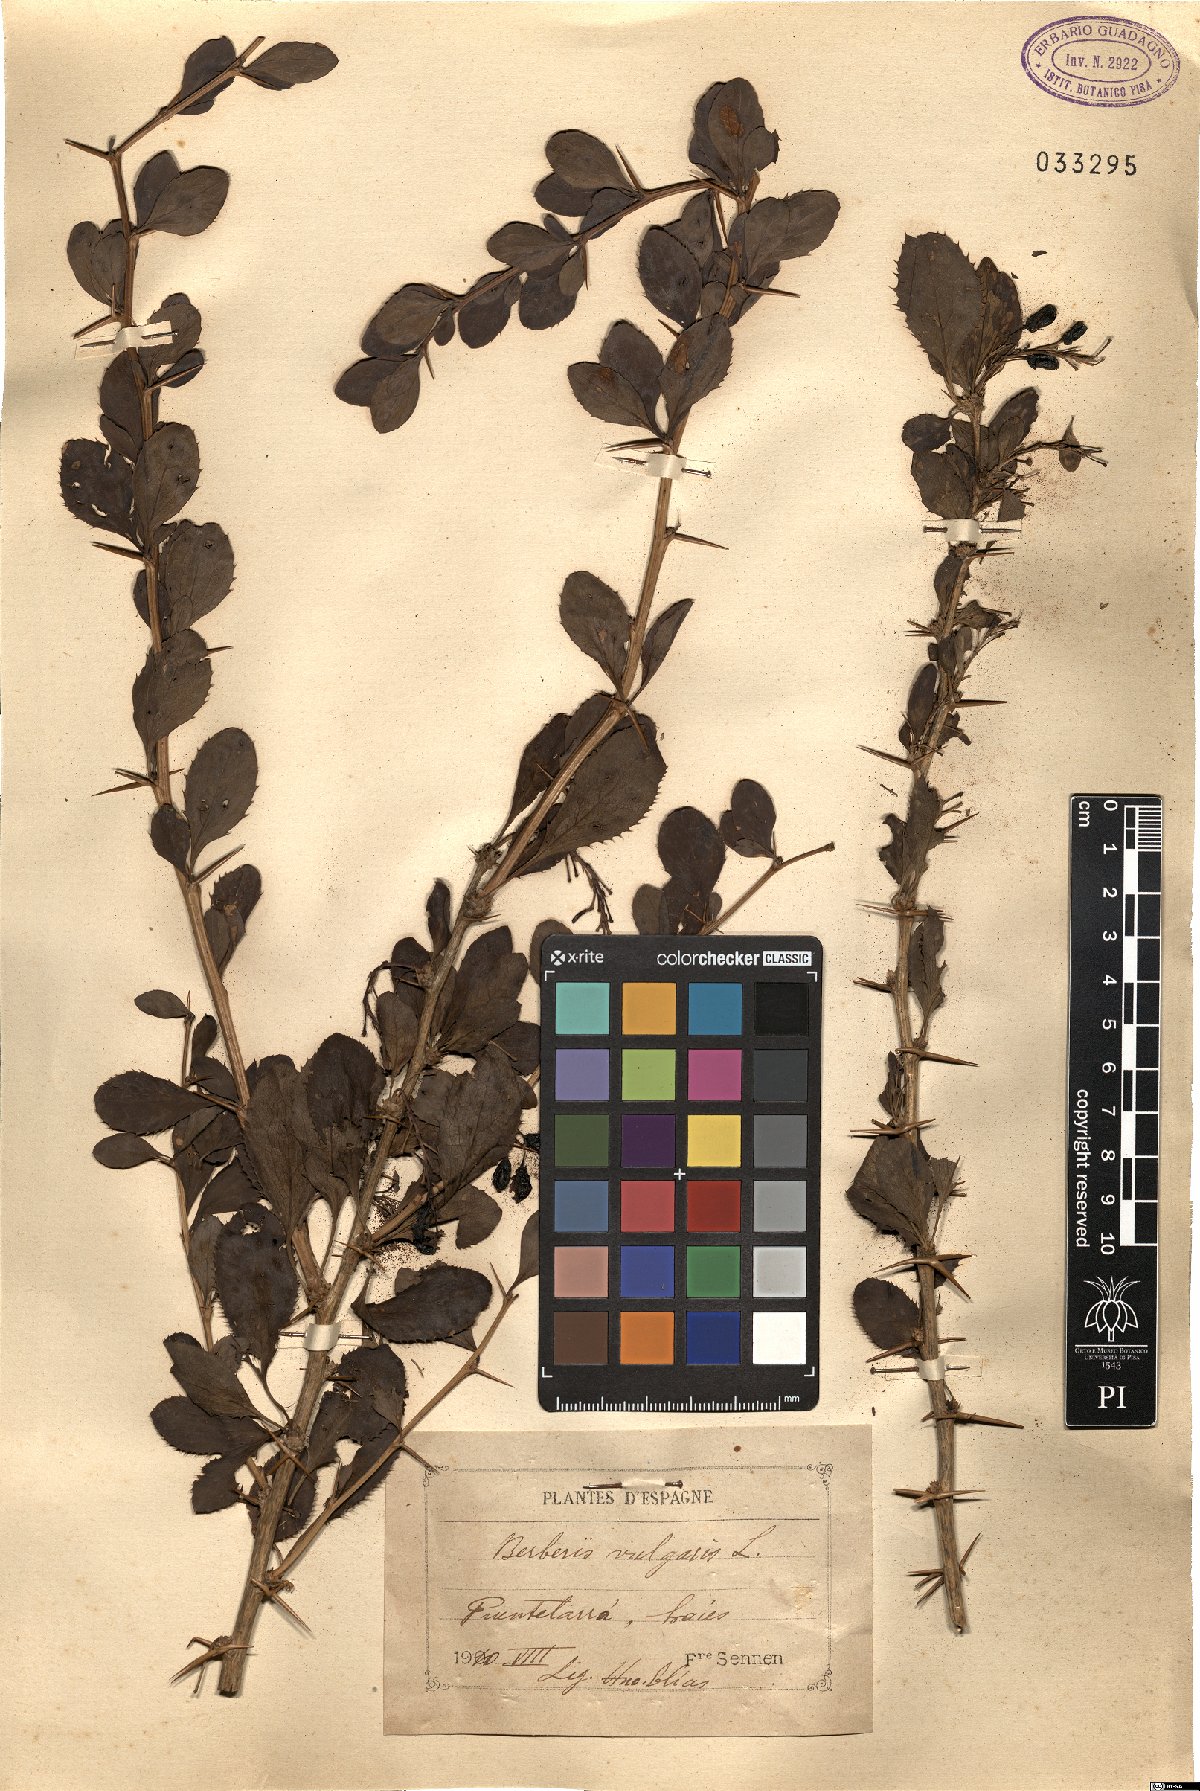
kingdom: Plantae
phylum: Tracheophyta
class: Magnoliopsida
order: Ranunculales
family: Berberidaceae
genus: Berberis
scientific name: Berberis vulgaris
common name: Barberry
